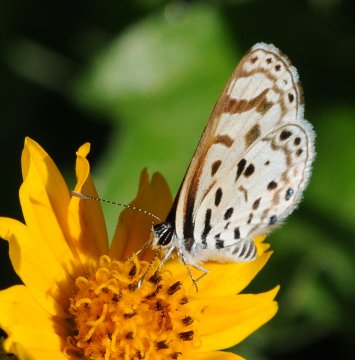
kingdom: Animalia
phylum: Arthropoda
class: Insecta
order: Lepidoptera
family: Lycaenidae
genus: Azanus
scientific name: Azanus natalensis
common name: Natal Babul Blue
